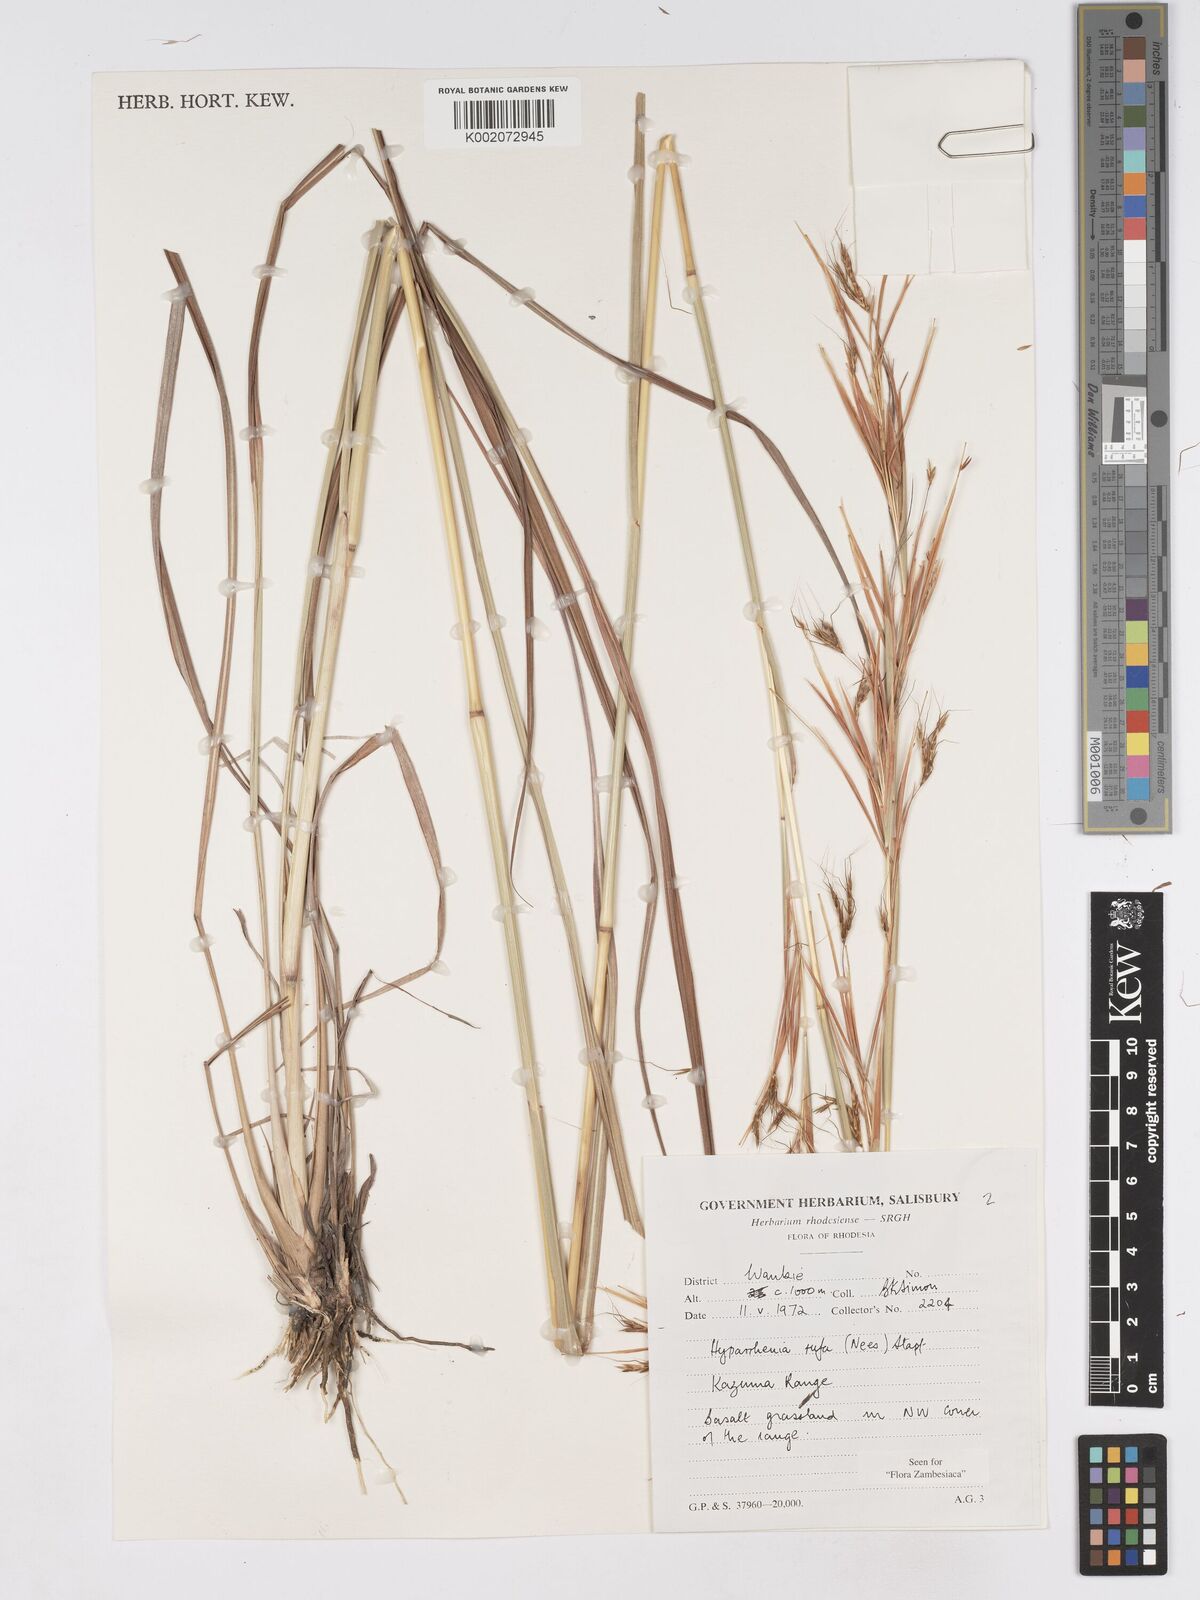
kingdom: Plantae
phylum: Tracheophyta
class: Liliopsida
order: Poales
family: Poaceae
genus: Hyparrhenia
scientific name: Hyparrhenia rufa
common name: Jaraguagrass
